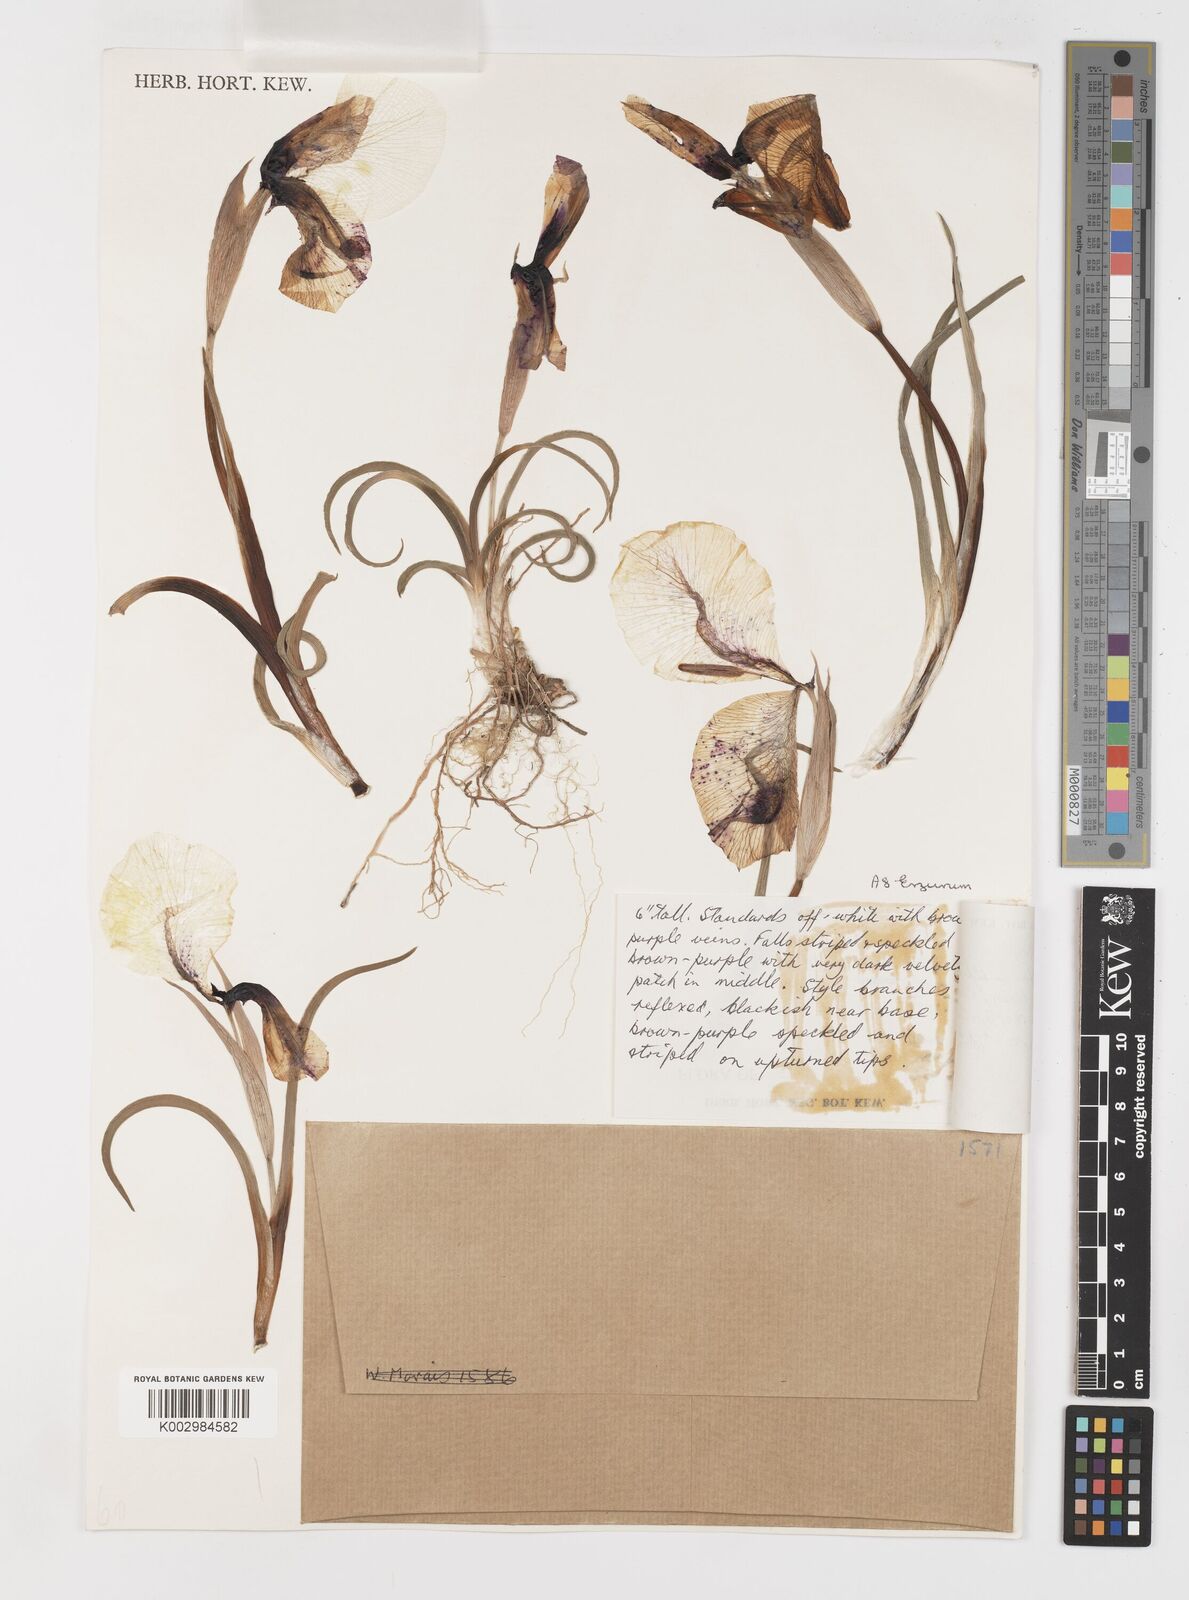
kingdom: Plantae
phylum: Tracheophyta
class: Liliopsida
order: Asparagales
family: Iridaceae
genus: Iris
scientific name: Iris iberica
